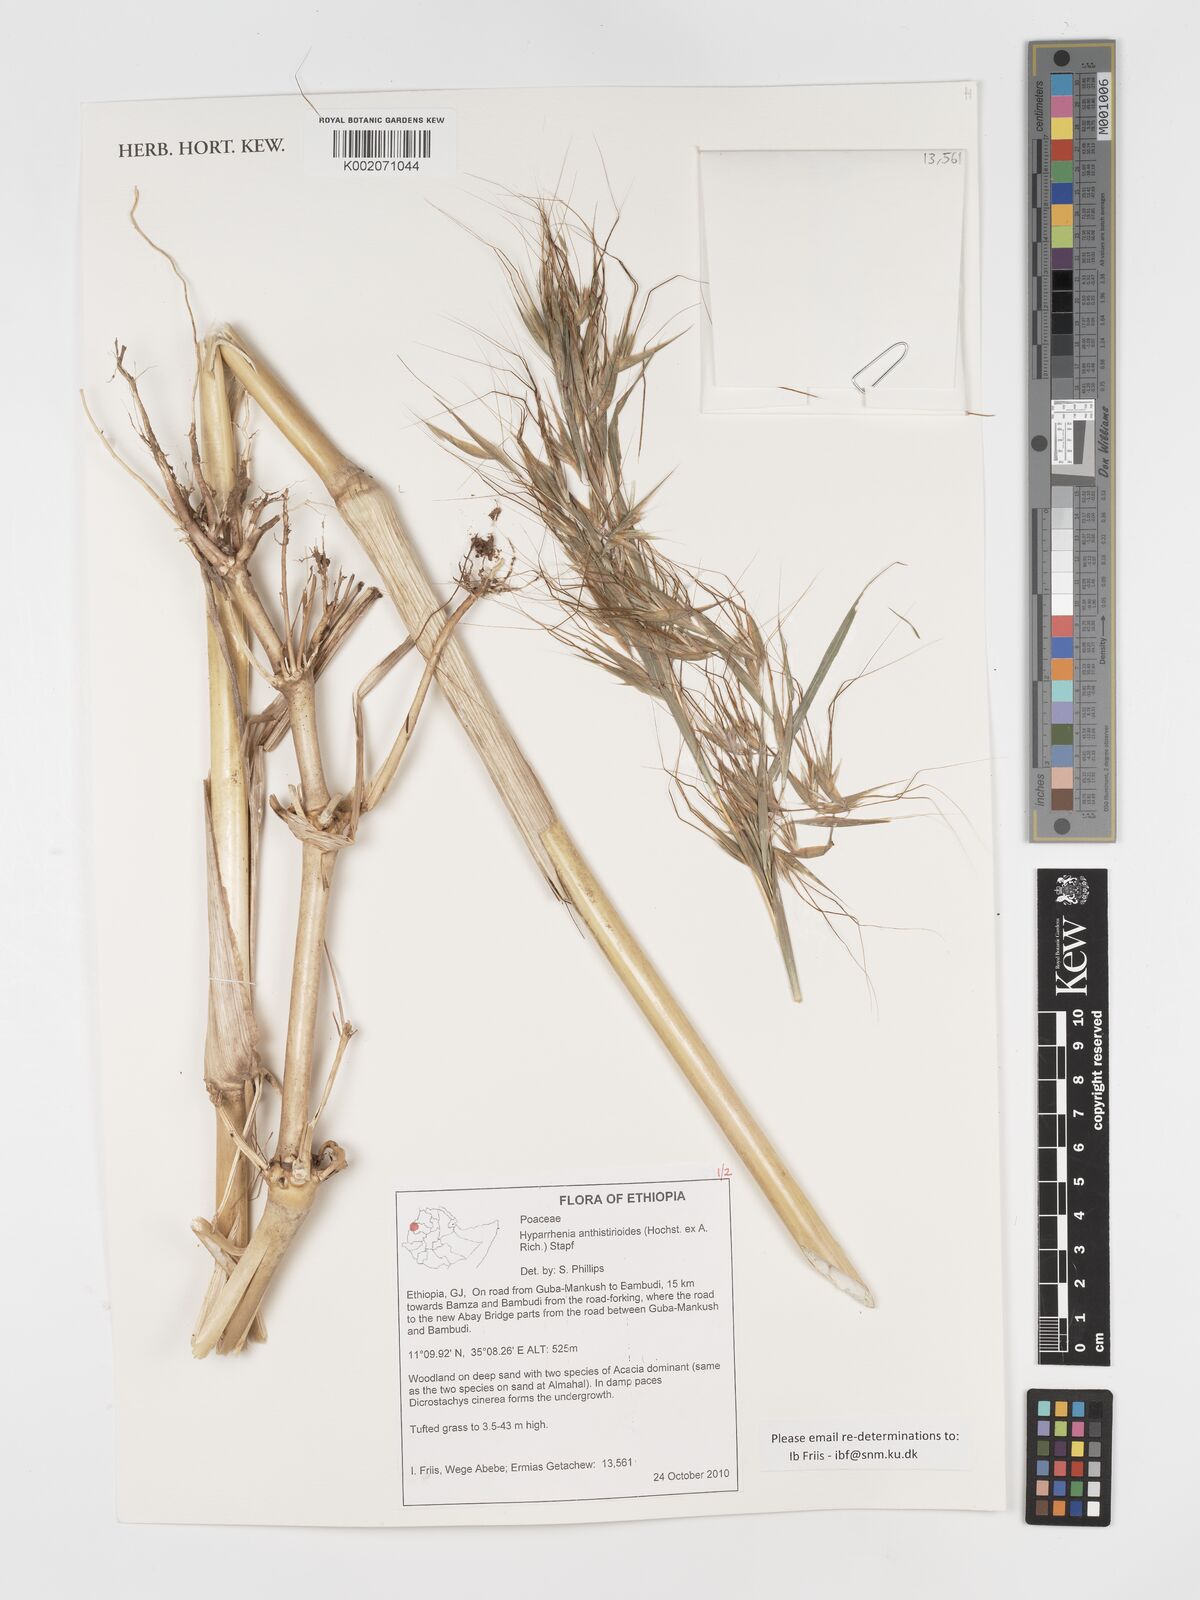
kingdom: Plantae
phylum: Tracheophyta
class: Liliopsida
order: Poales
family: Poaceae
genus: Hyparrhenia
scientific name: Hyparrhenia anthistirioides
